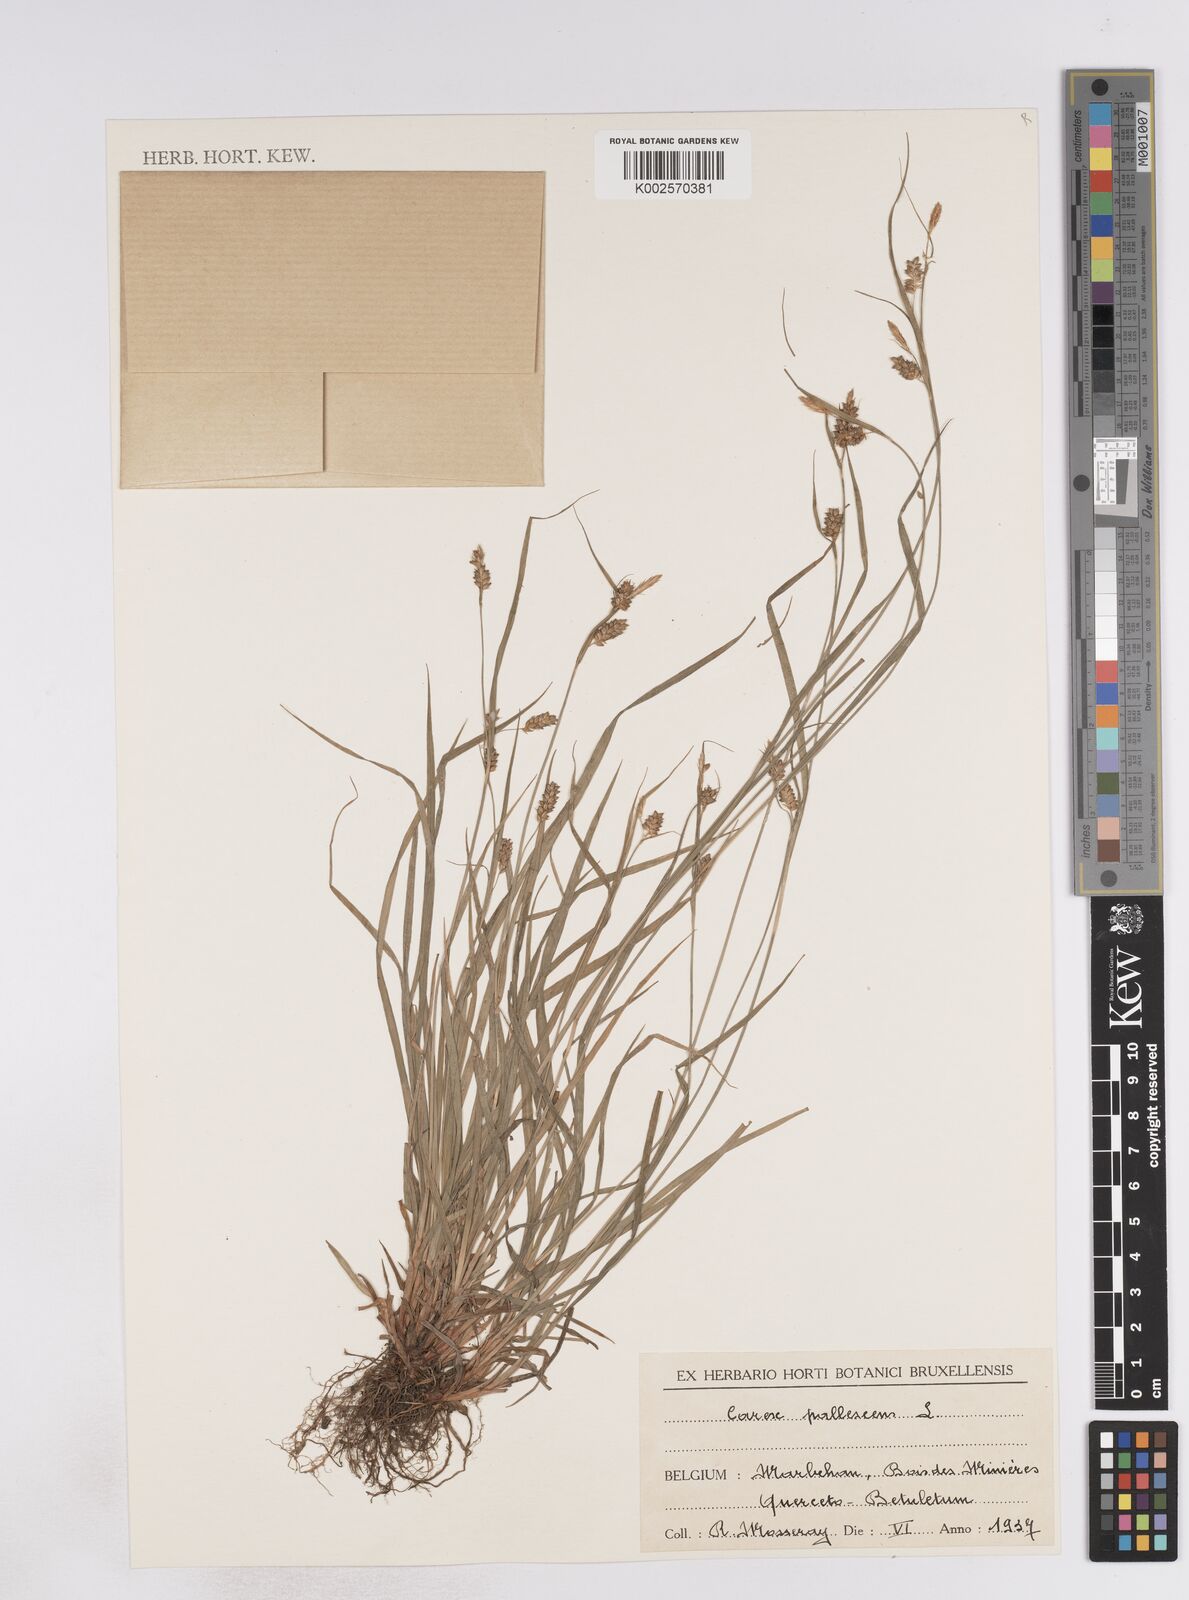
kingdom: Plantae
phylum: Tracheophyta
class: Liliopsida
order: Poales
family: Cyperaceae
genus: Carex
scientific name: Carex pallescens
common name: Pale sedge
